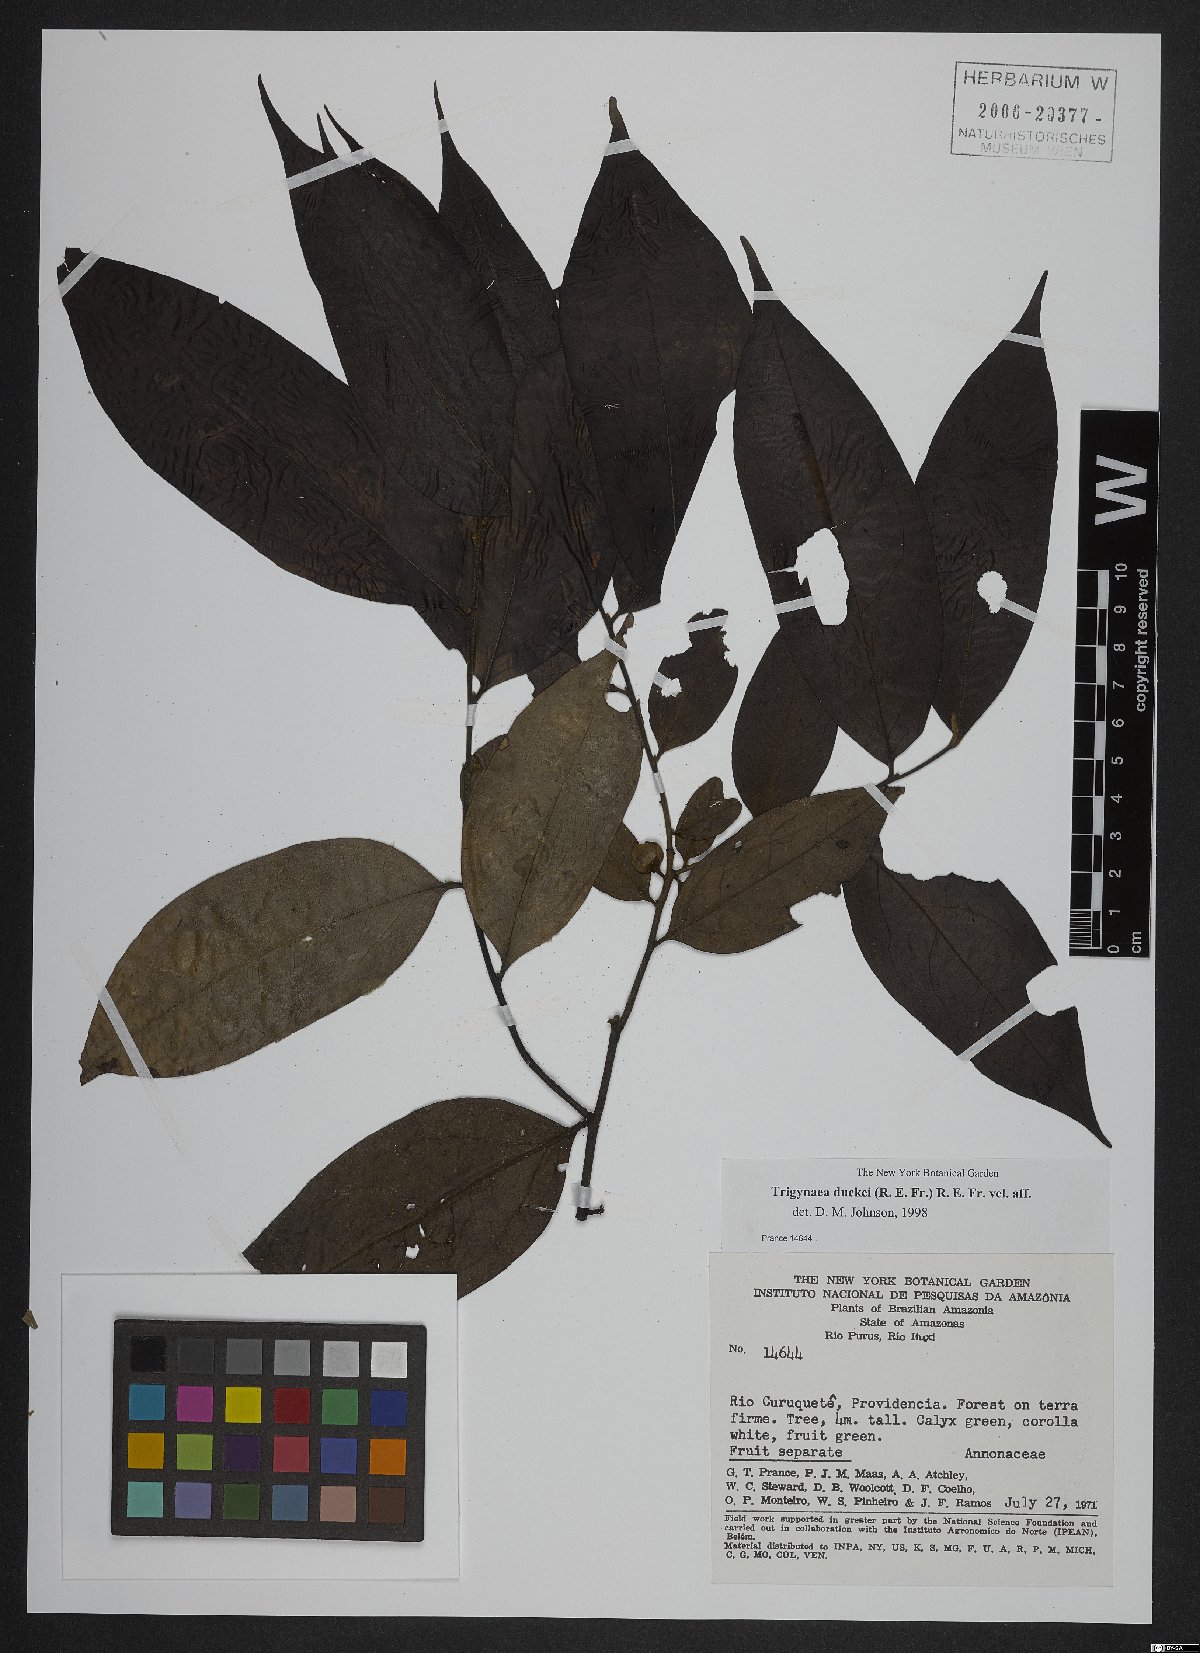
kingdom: Plantae
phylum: Tracheophyta
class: Magnoliopsida
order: Magnoliales
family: Annonaceae
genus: Trigynaea
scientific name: Trigynaea duckei
